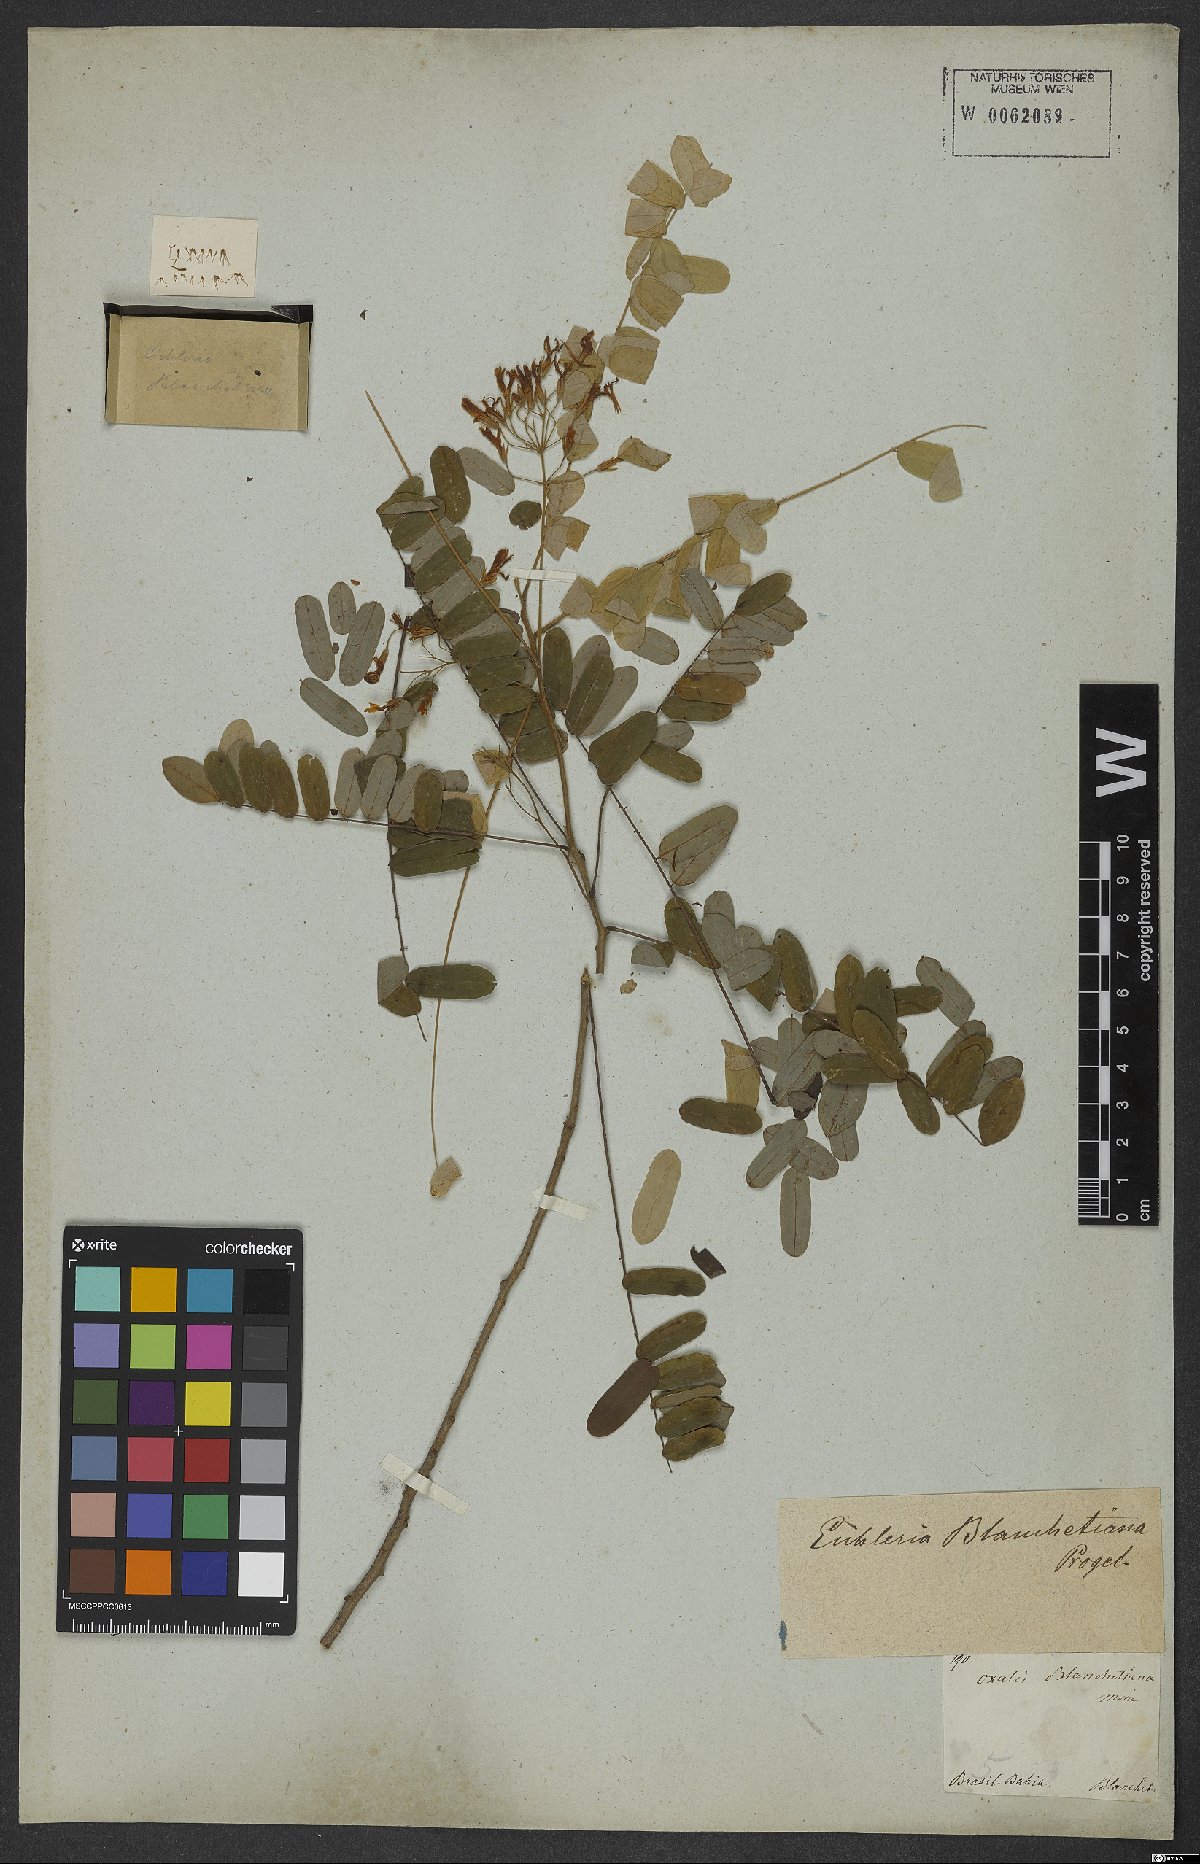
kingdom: Plantae
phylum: Tracheophyta
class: Magnoliopsida
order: Oxalidales
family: Connaraceae
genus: Rourea
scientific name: Rourea blanchetiana
